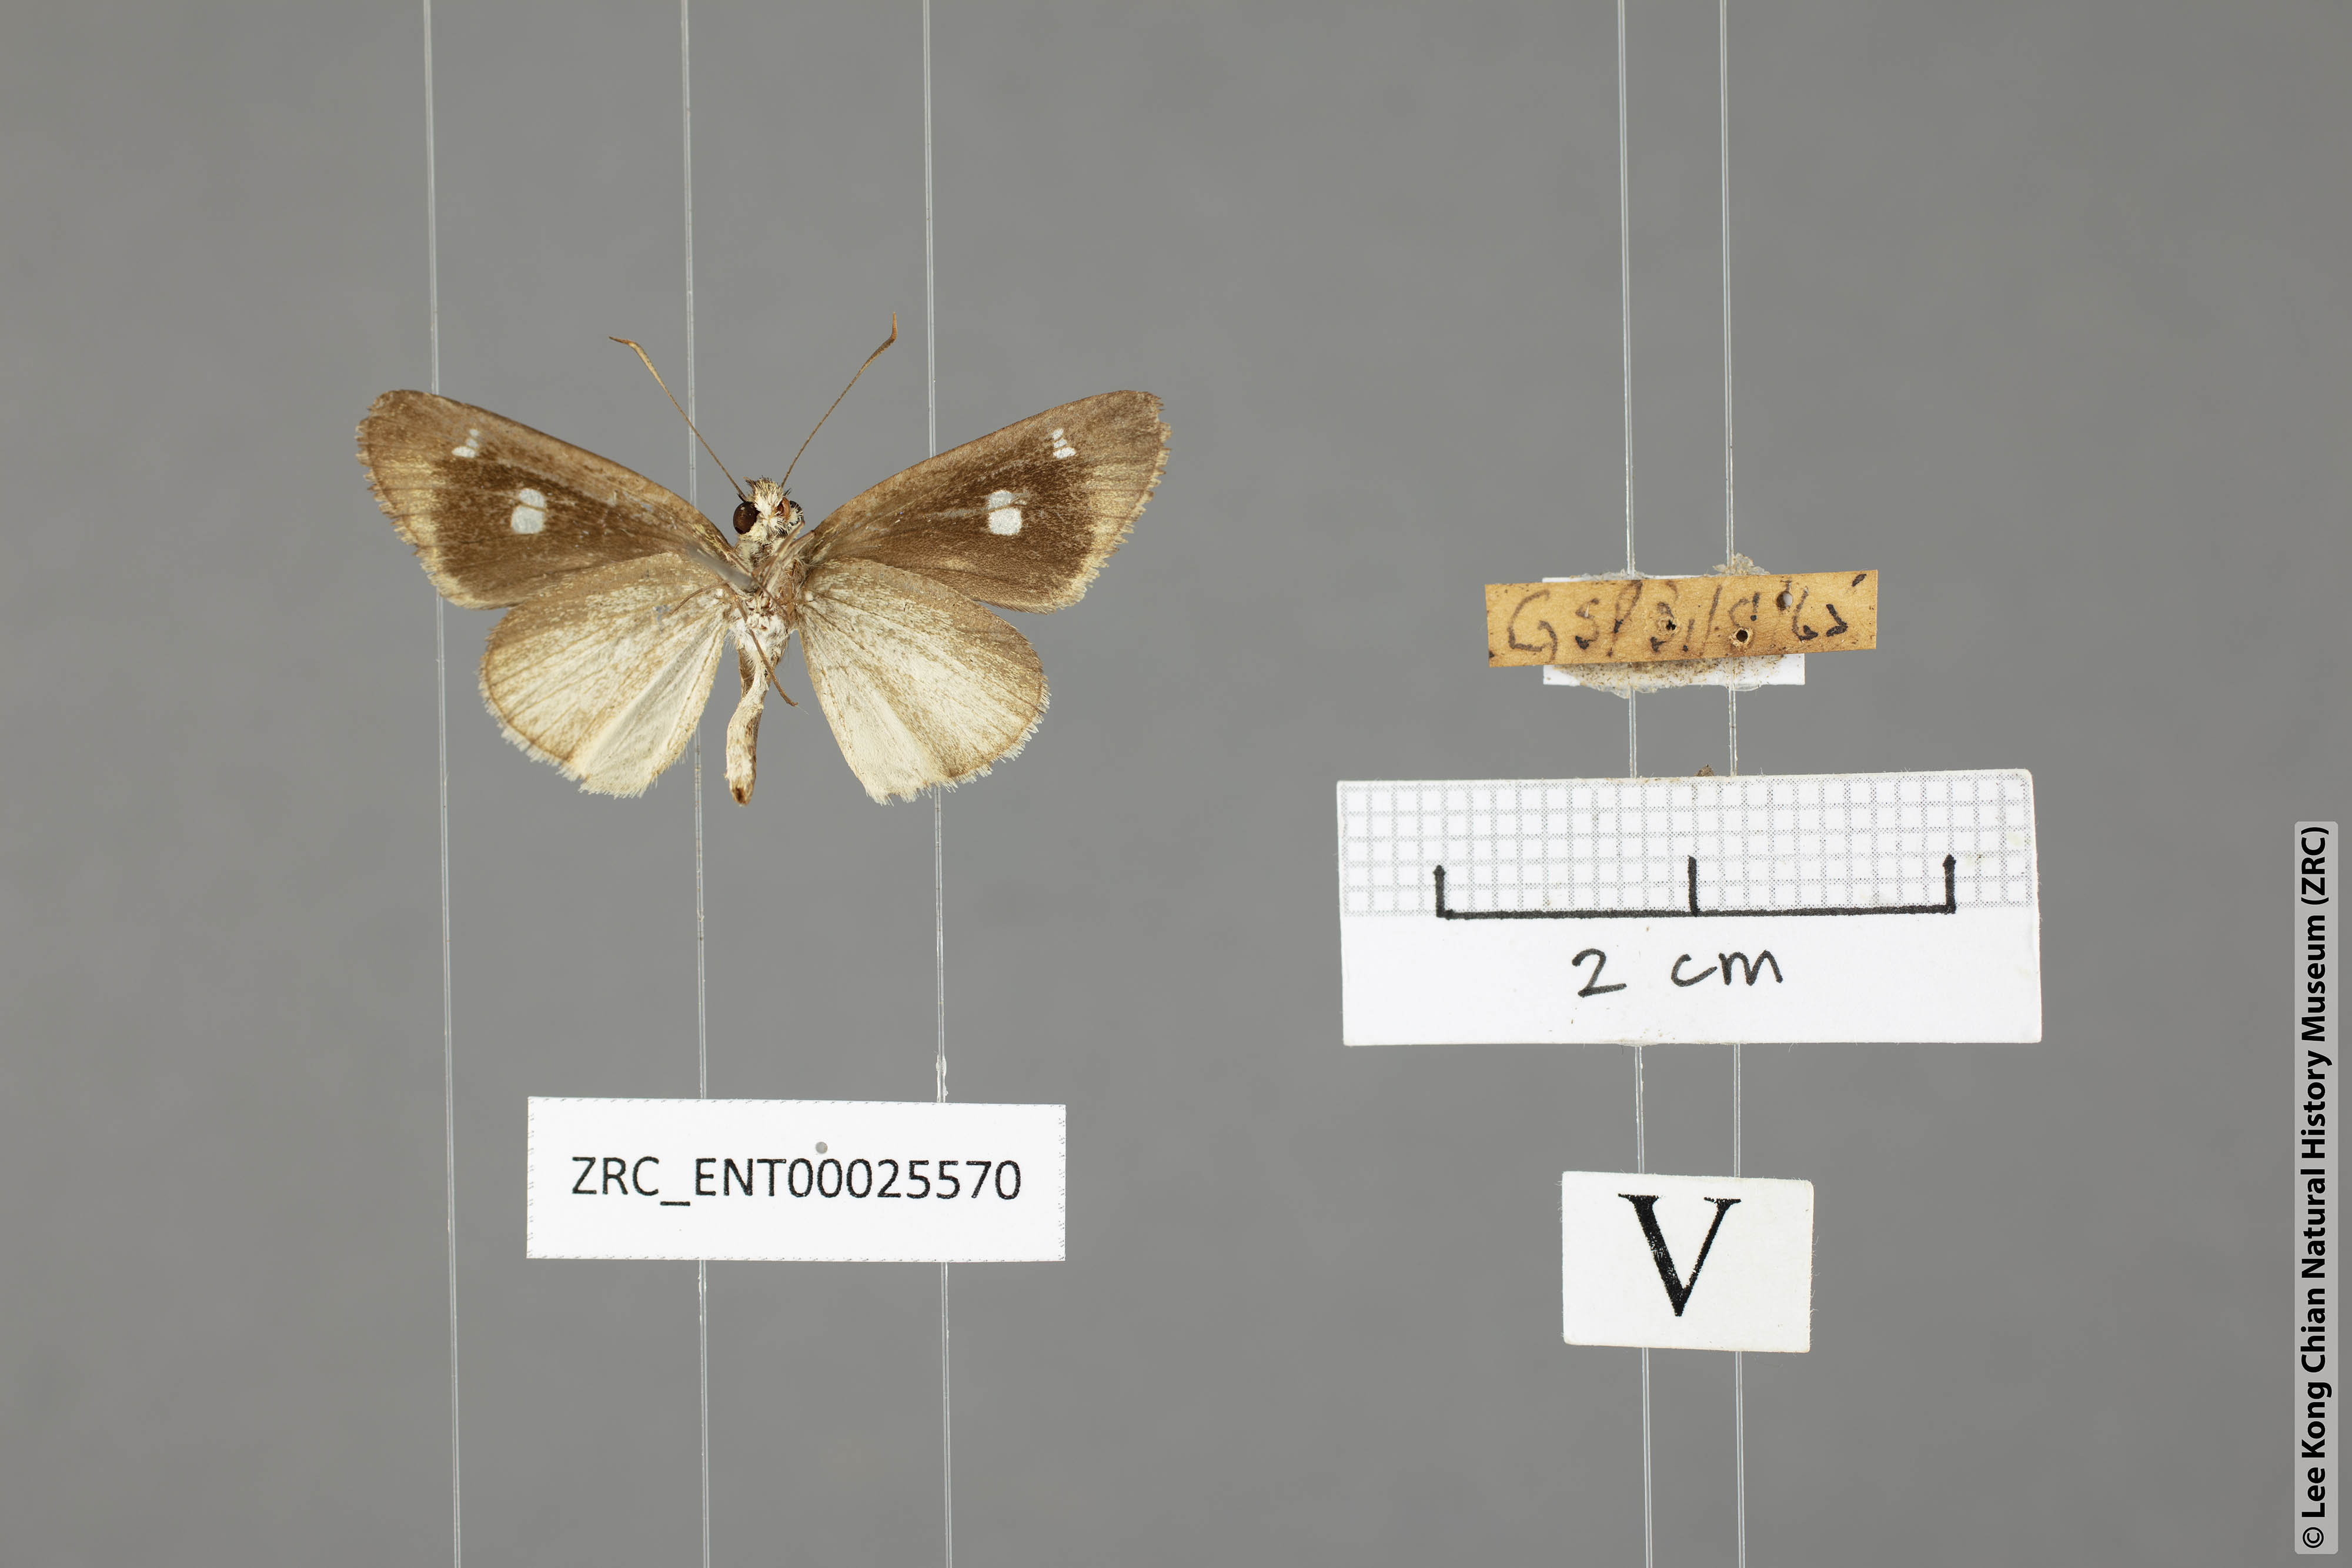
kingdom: Animalia
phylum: Arthropoda
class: Insecta
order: Lepidoptera
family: Hesperiidae
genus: Suada
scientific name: Suada swerga
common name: Grass bob
